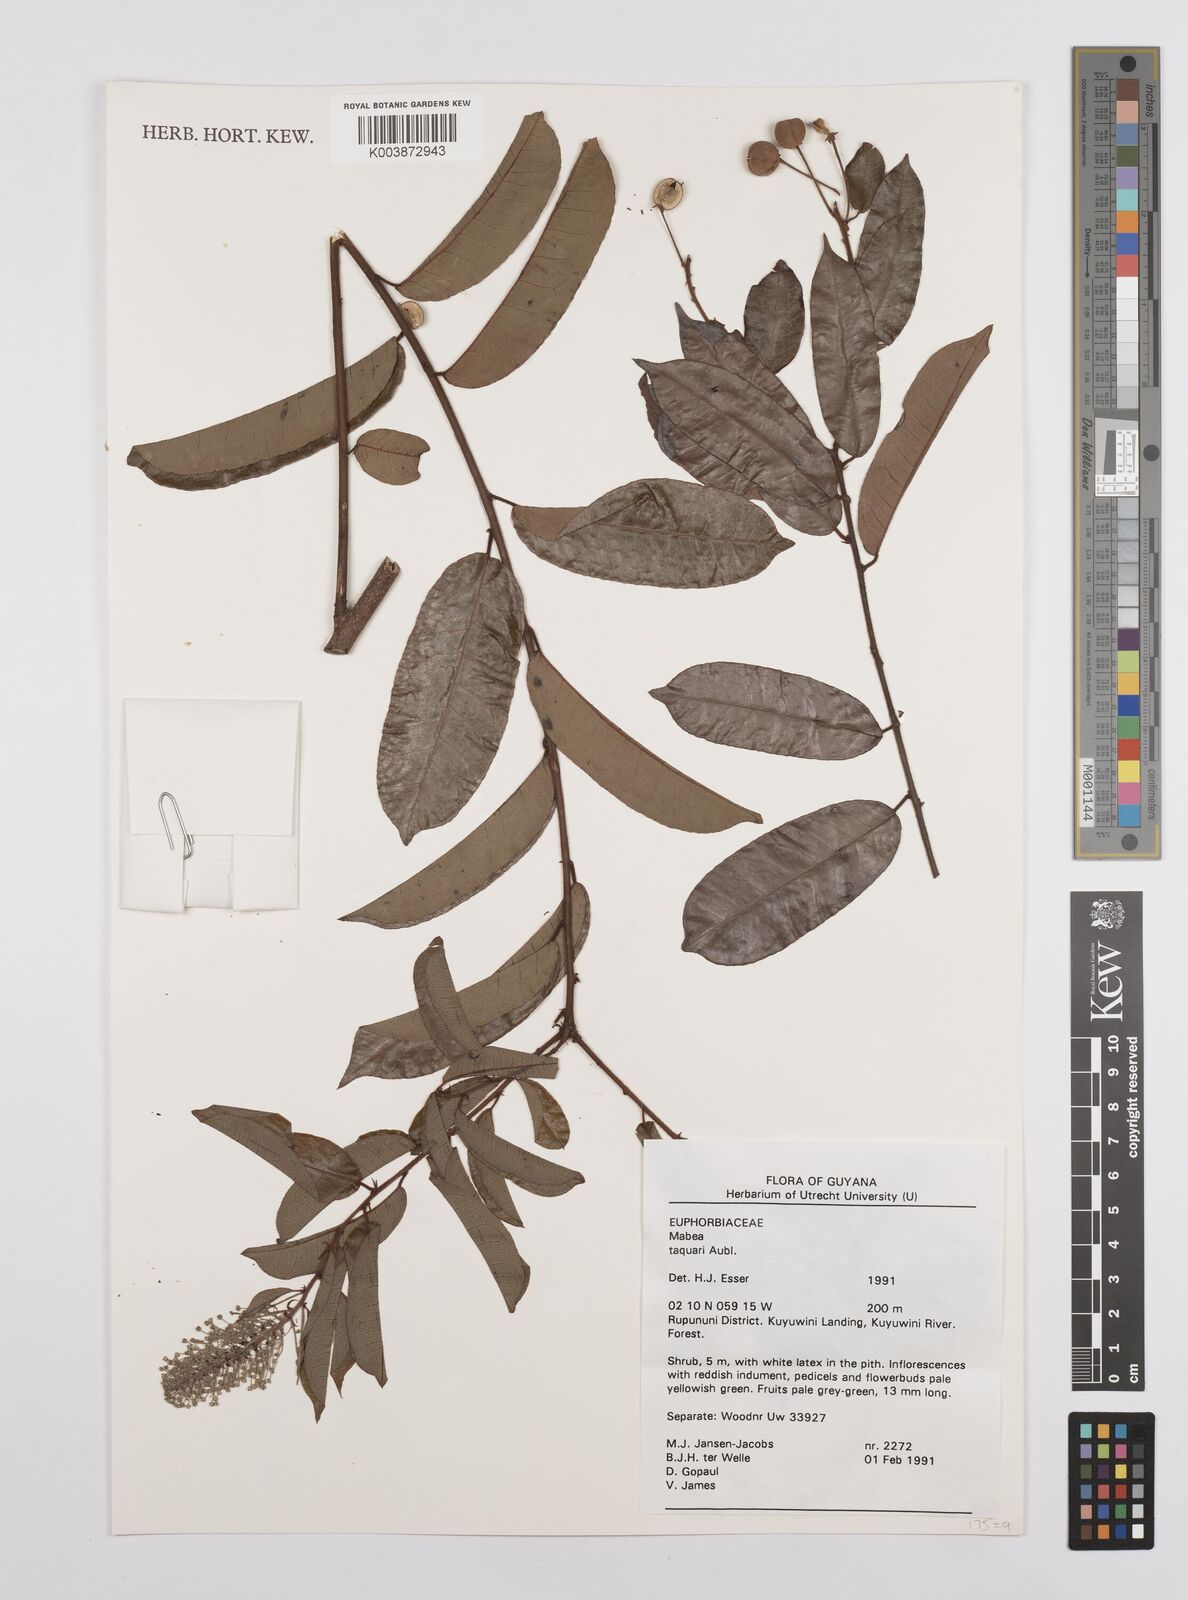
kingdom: Plantae
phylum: Tracheophyta
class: Magnoliopsida
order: Malpighiales
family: Euphorbiaceae
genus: Mabea
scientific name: Mabea taquari
